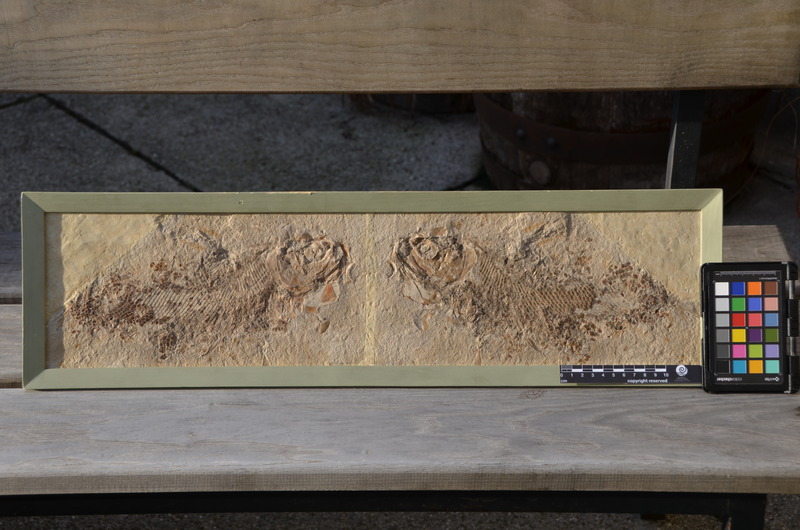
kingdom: Animalia
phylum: Chordata
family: Ankylophoridae
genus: Siemensichthys
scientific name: Siemensichthys macrocephalus
